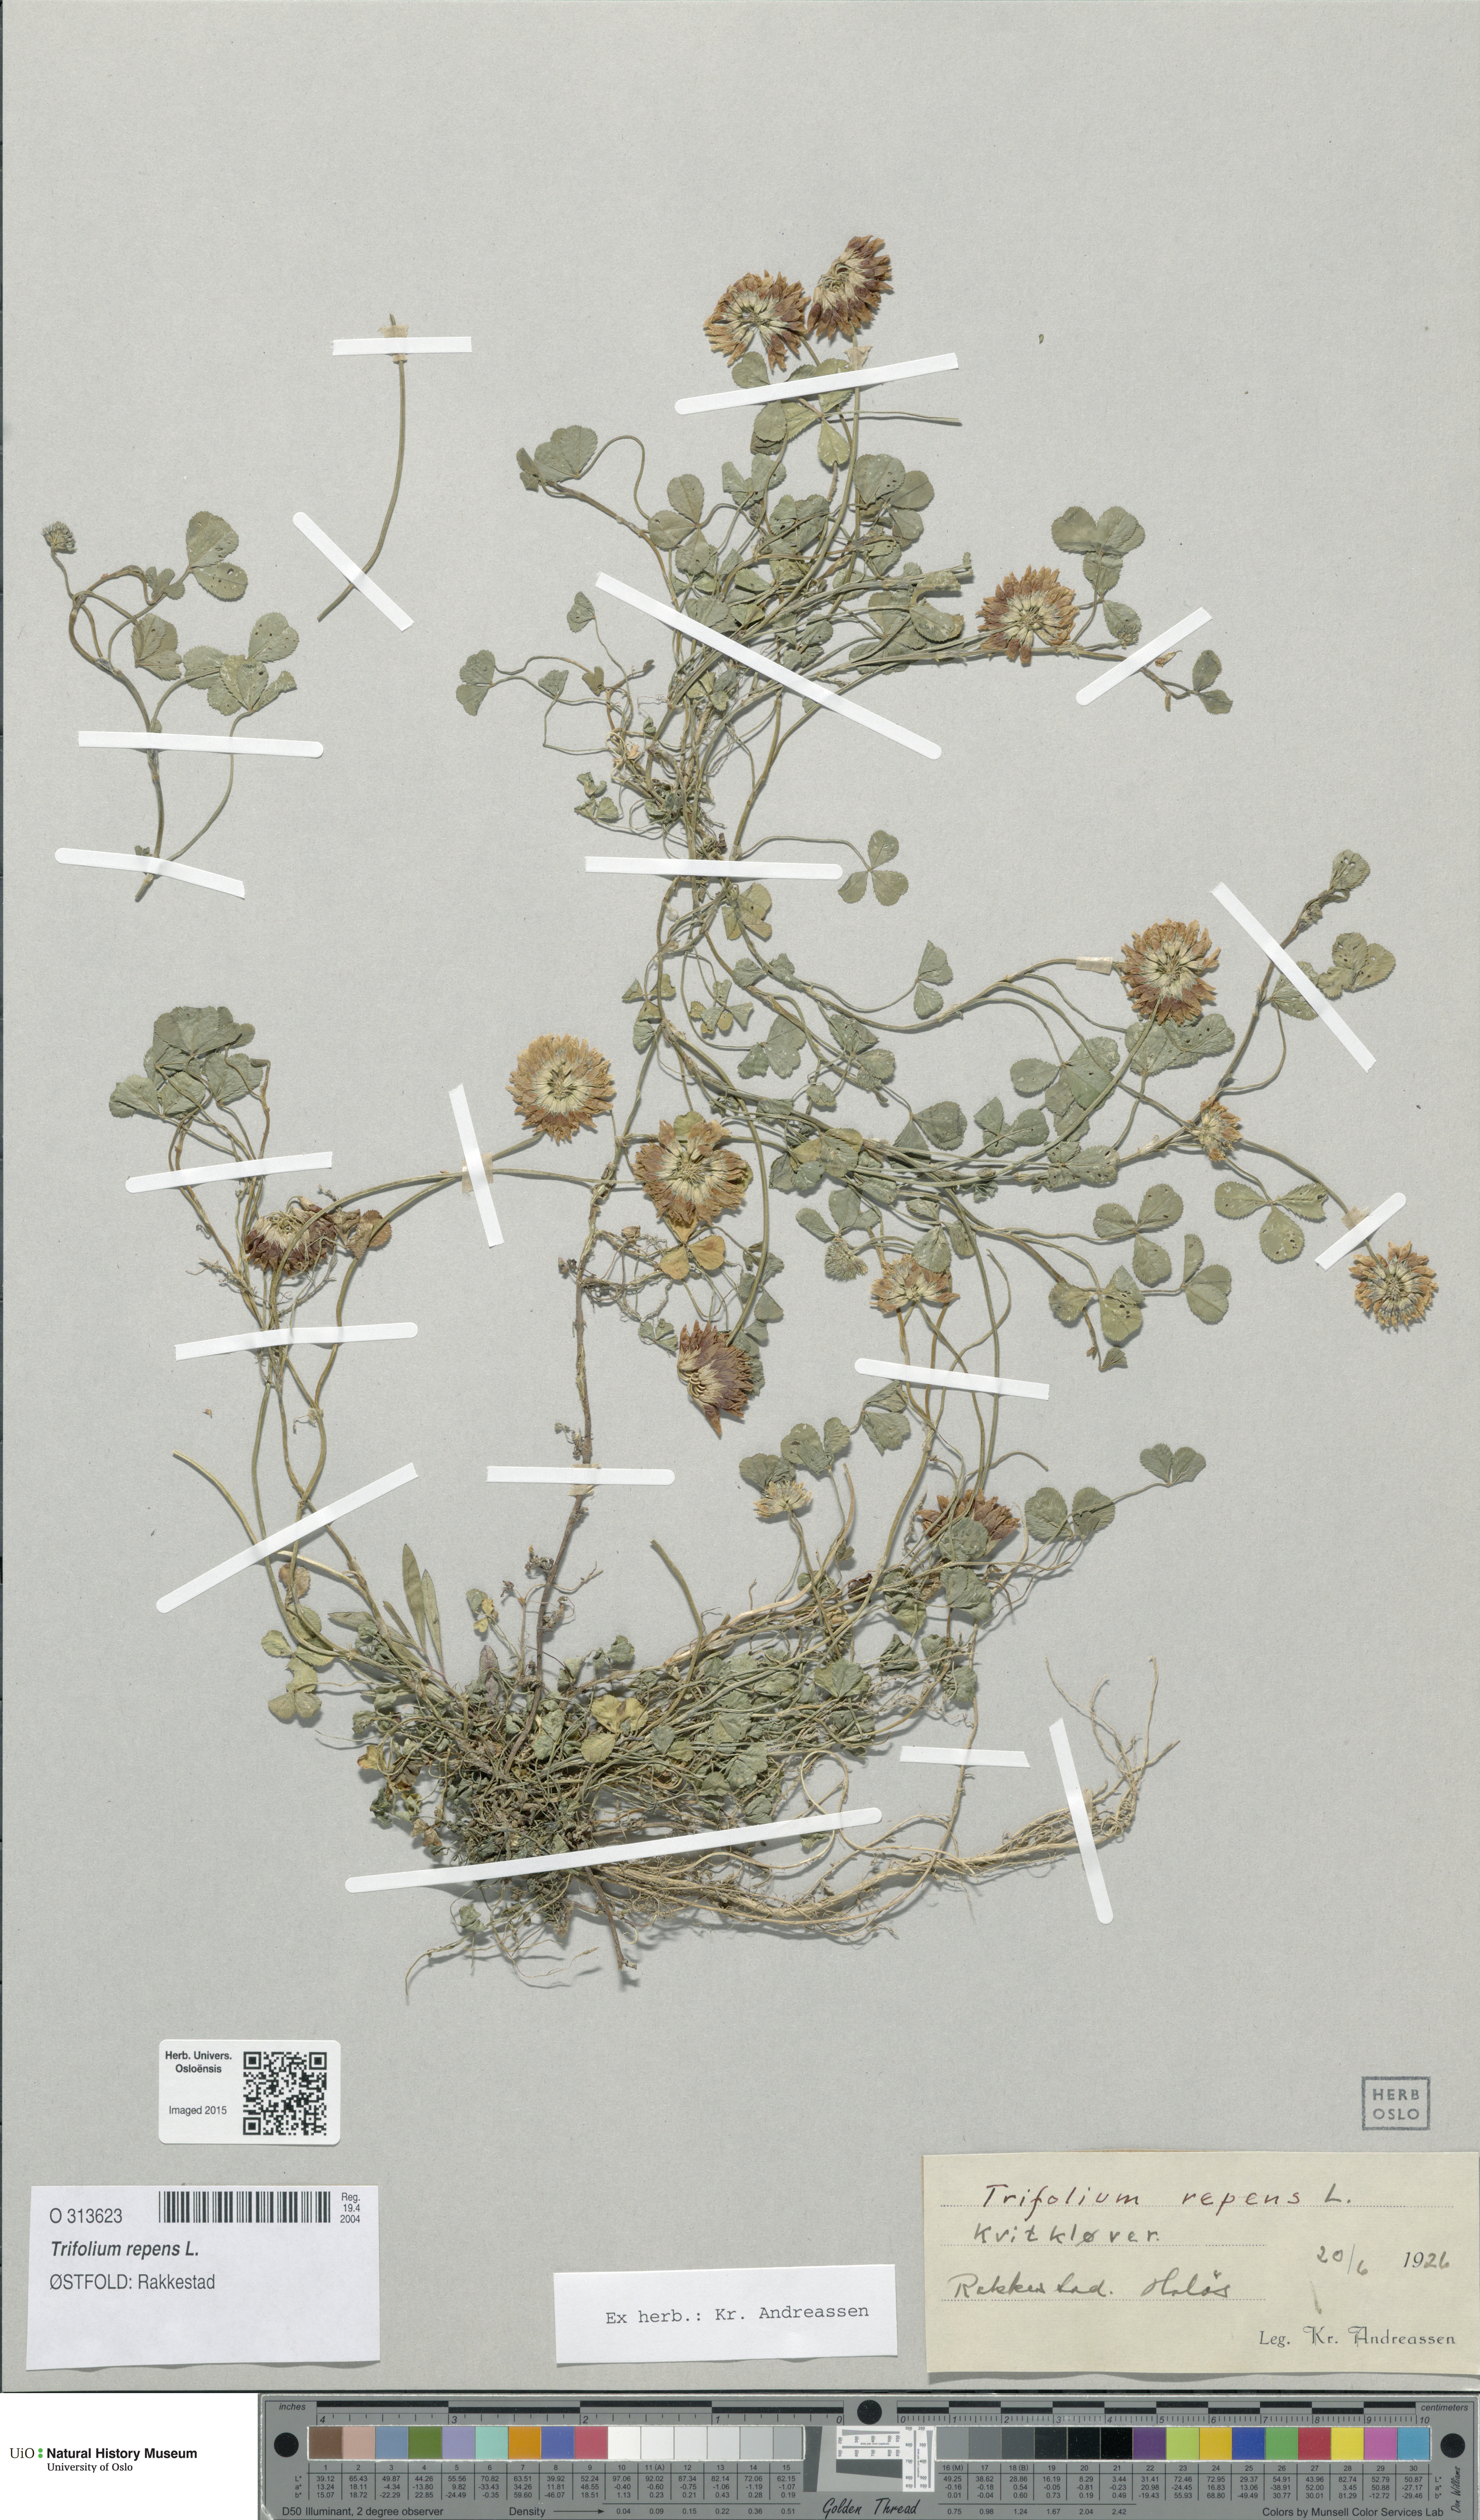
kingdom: Plantae
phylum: Tracheophyta
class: Magnoliopsida
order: Fabales
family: Fabaceae
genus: Trifolium
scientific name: Trifolium repens
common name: White clover
